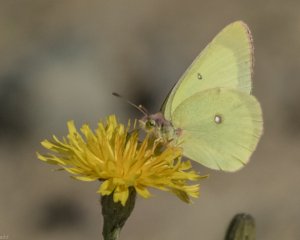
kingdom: Animalia
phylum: Arthropoda
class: Insecta
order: Lepidoptera
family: Pieridae
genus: Colias
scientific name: Colias interior
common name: Pink-edged Sulphur
